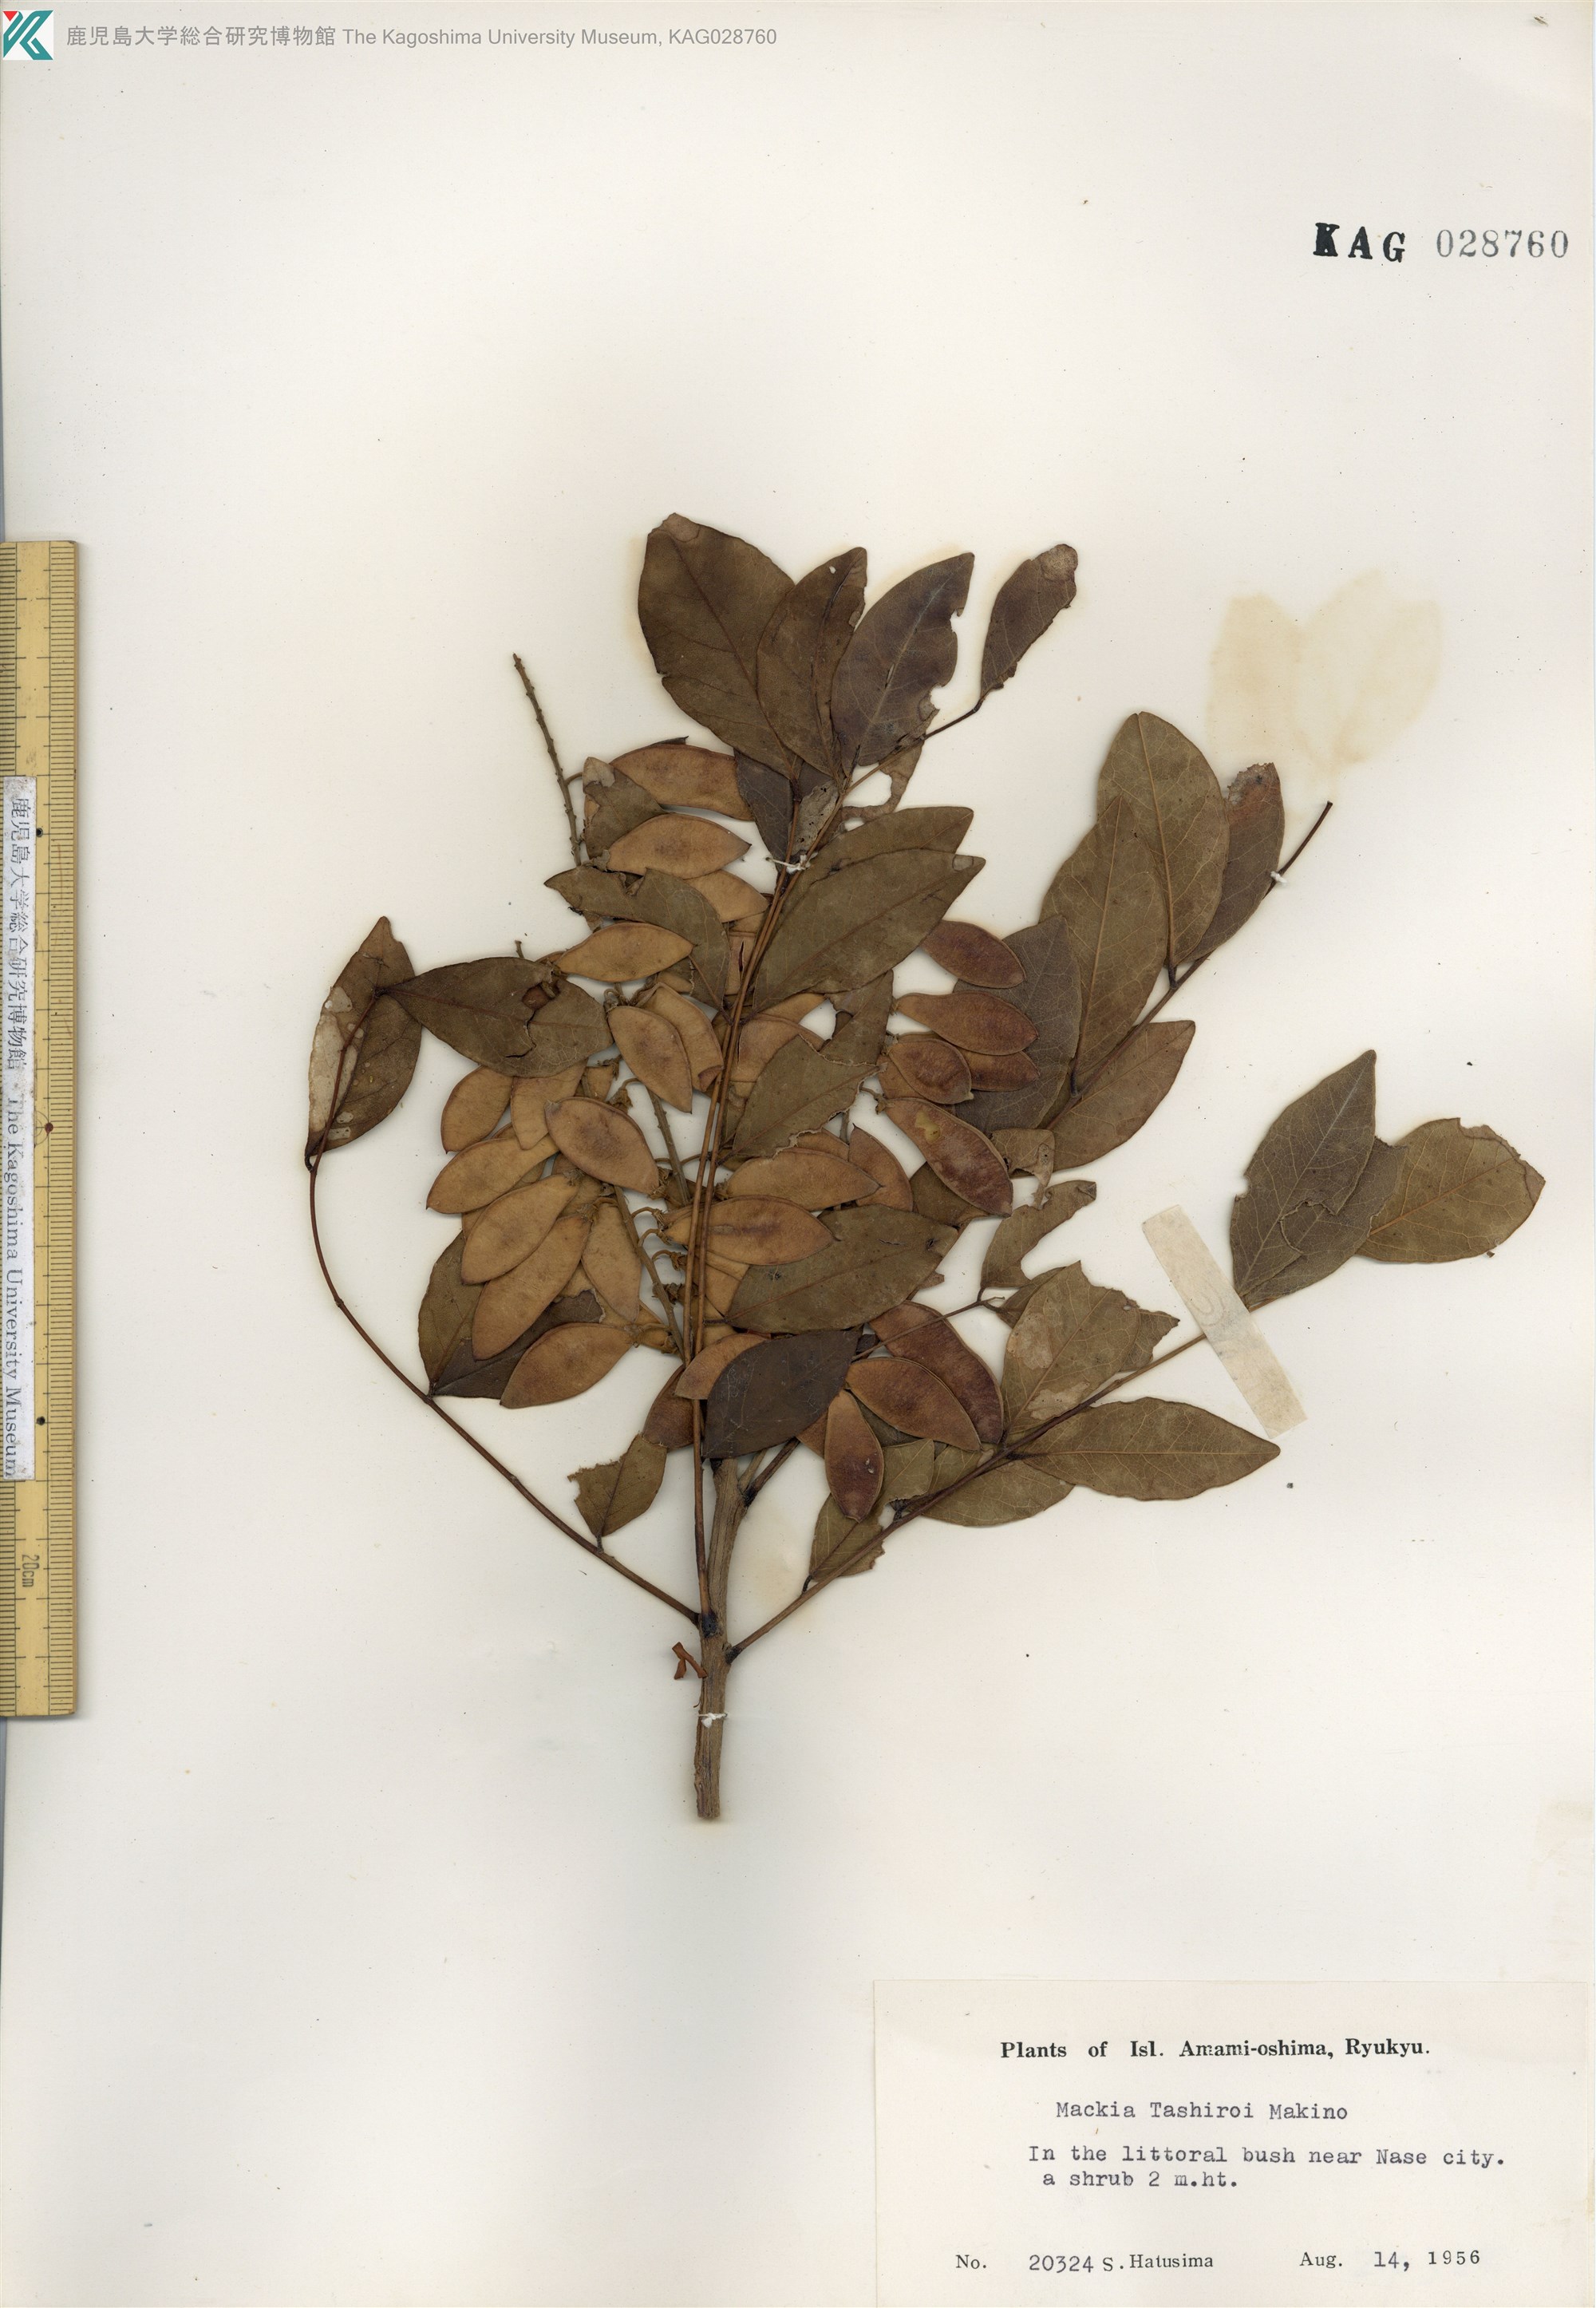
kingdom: Plantae
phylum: Tracheophyta
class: Magnoliopsida
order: Fabales
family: Fabaceae
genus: Maackia
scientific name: Maackia tashiroi
